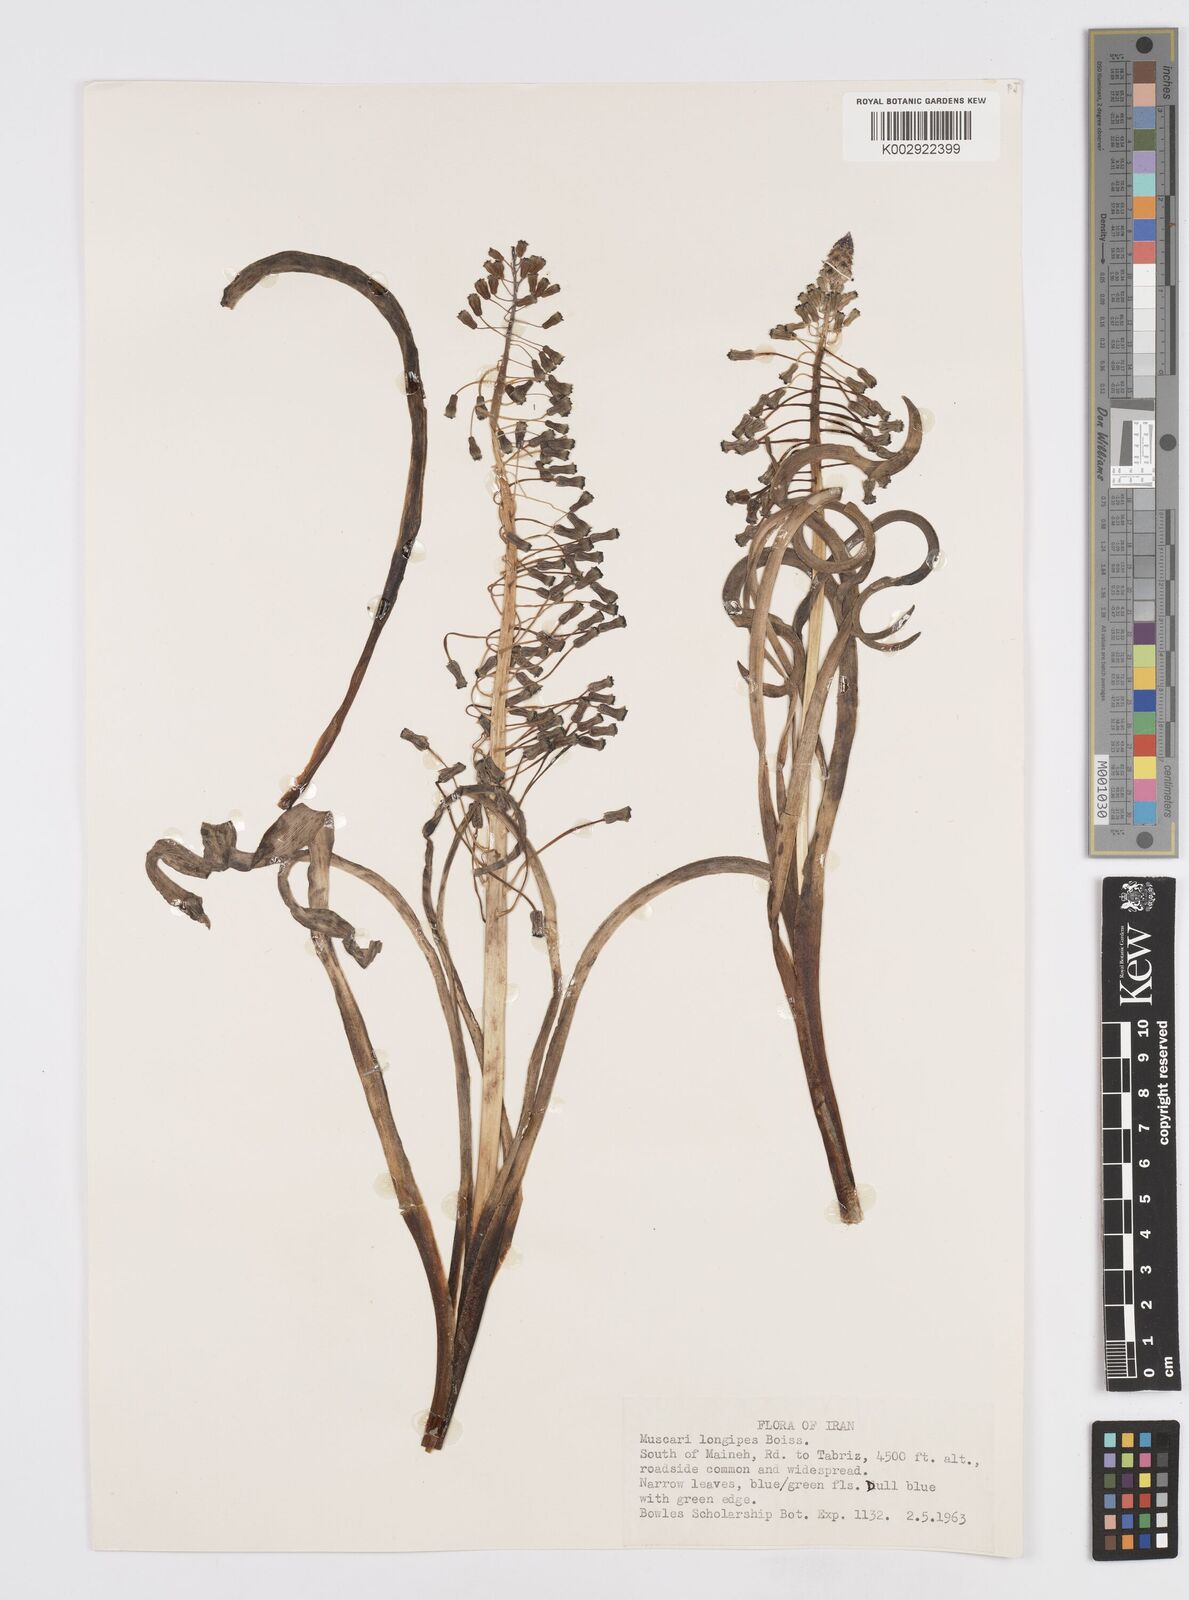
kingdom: Plantae
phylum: Tracheophyta
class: Liliopsida
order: Asparagales
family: Asparagaceae
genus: Muscari
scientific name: Muscari longipes
